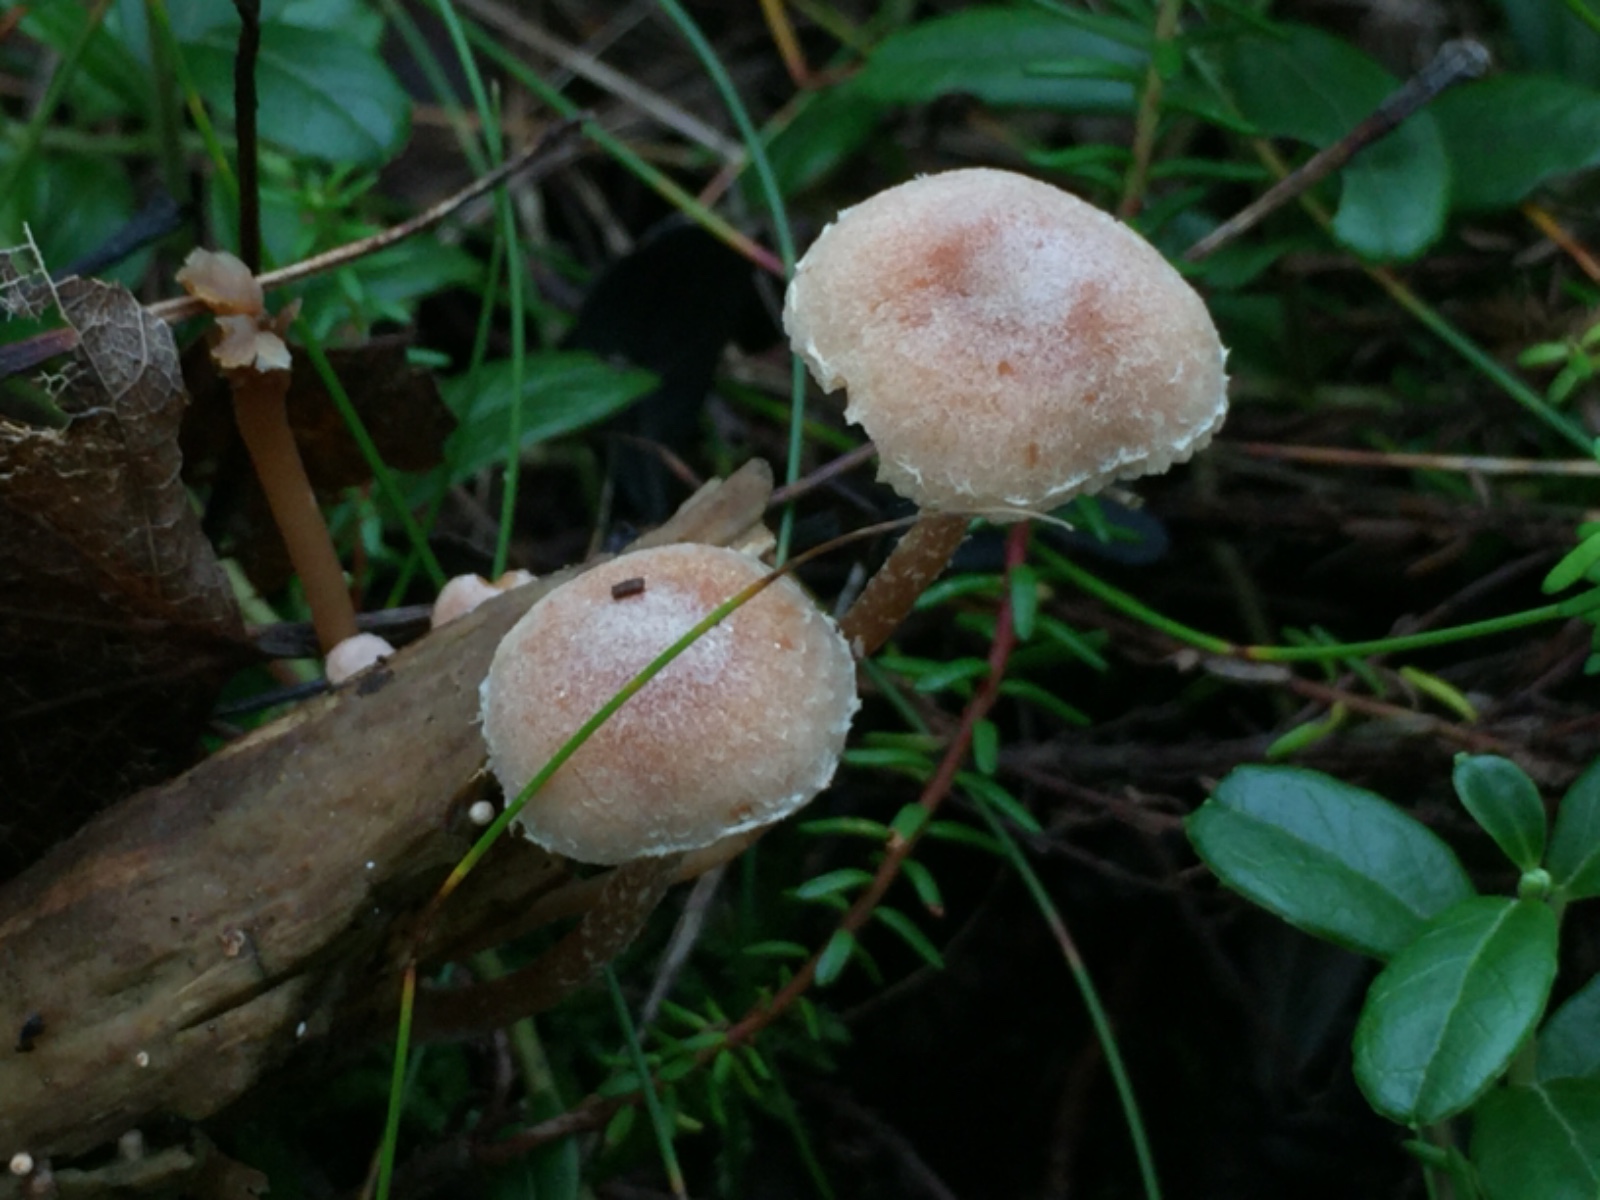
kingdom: Fungi
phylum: Basidiomycota
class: Agaricomycetes
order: Agaricales
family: Tubariaceae
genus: Tubaria
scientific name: Tubaria conspersa
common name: bleg fnughat
